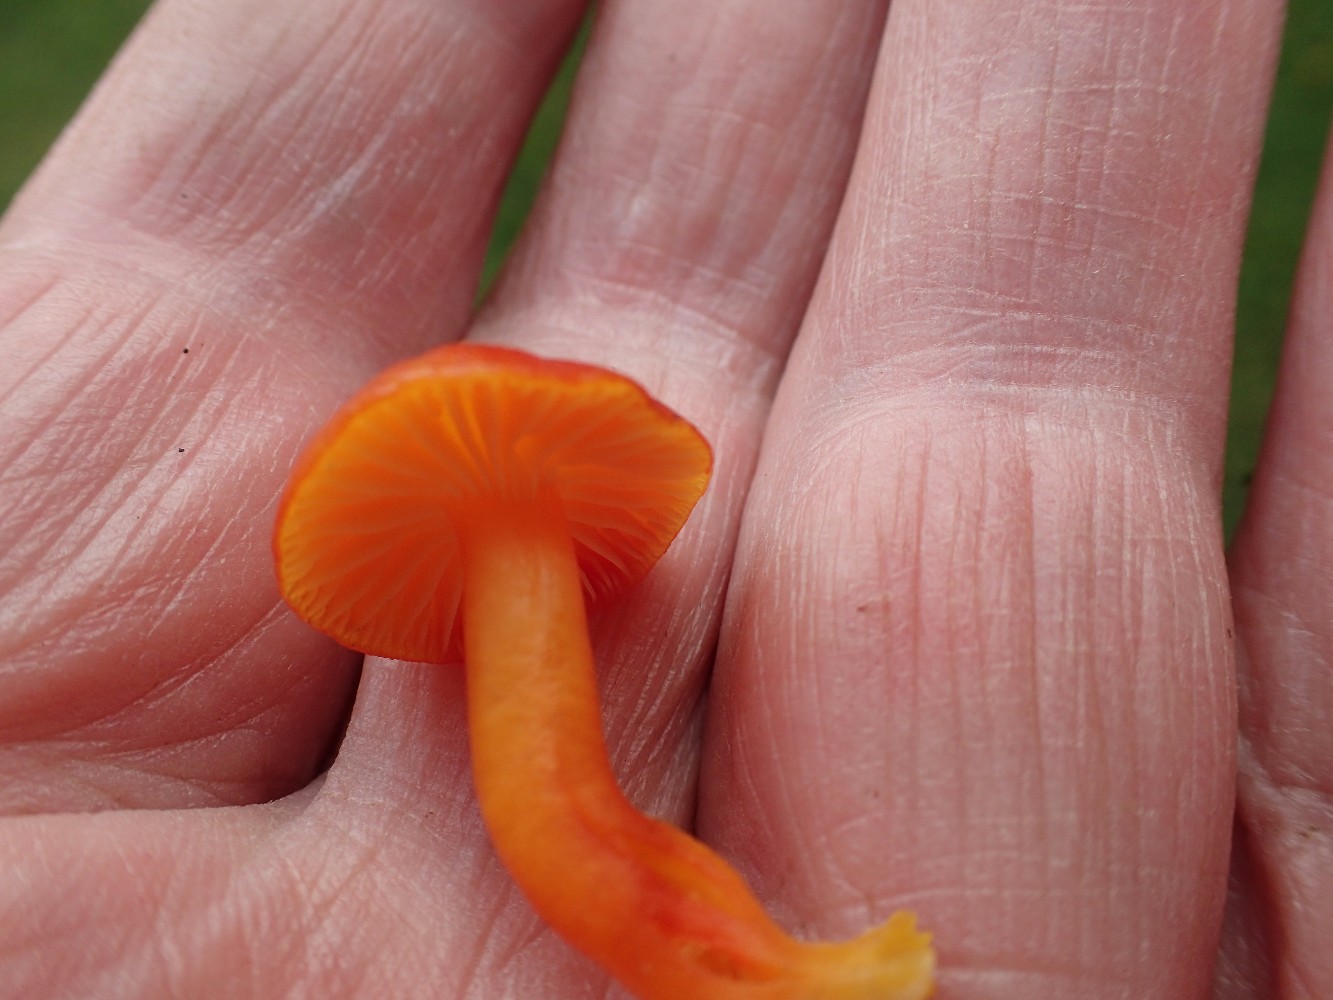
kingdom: Fungi
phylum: Basidiomycota
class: Agaricomycetes
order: Agaricales
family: Hygrophoraceae
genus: Hygrocybe
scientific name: Hygrocybe reidii
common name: honning-vokshat
